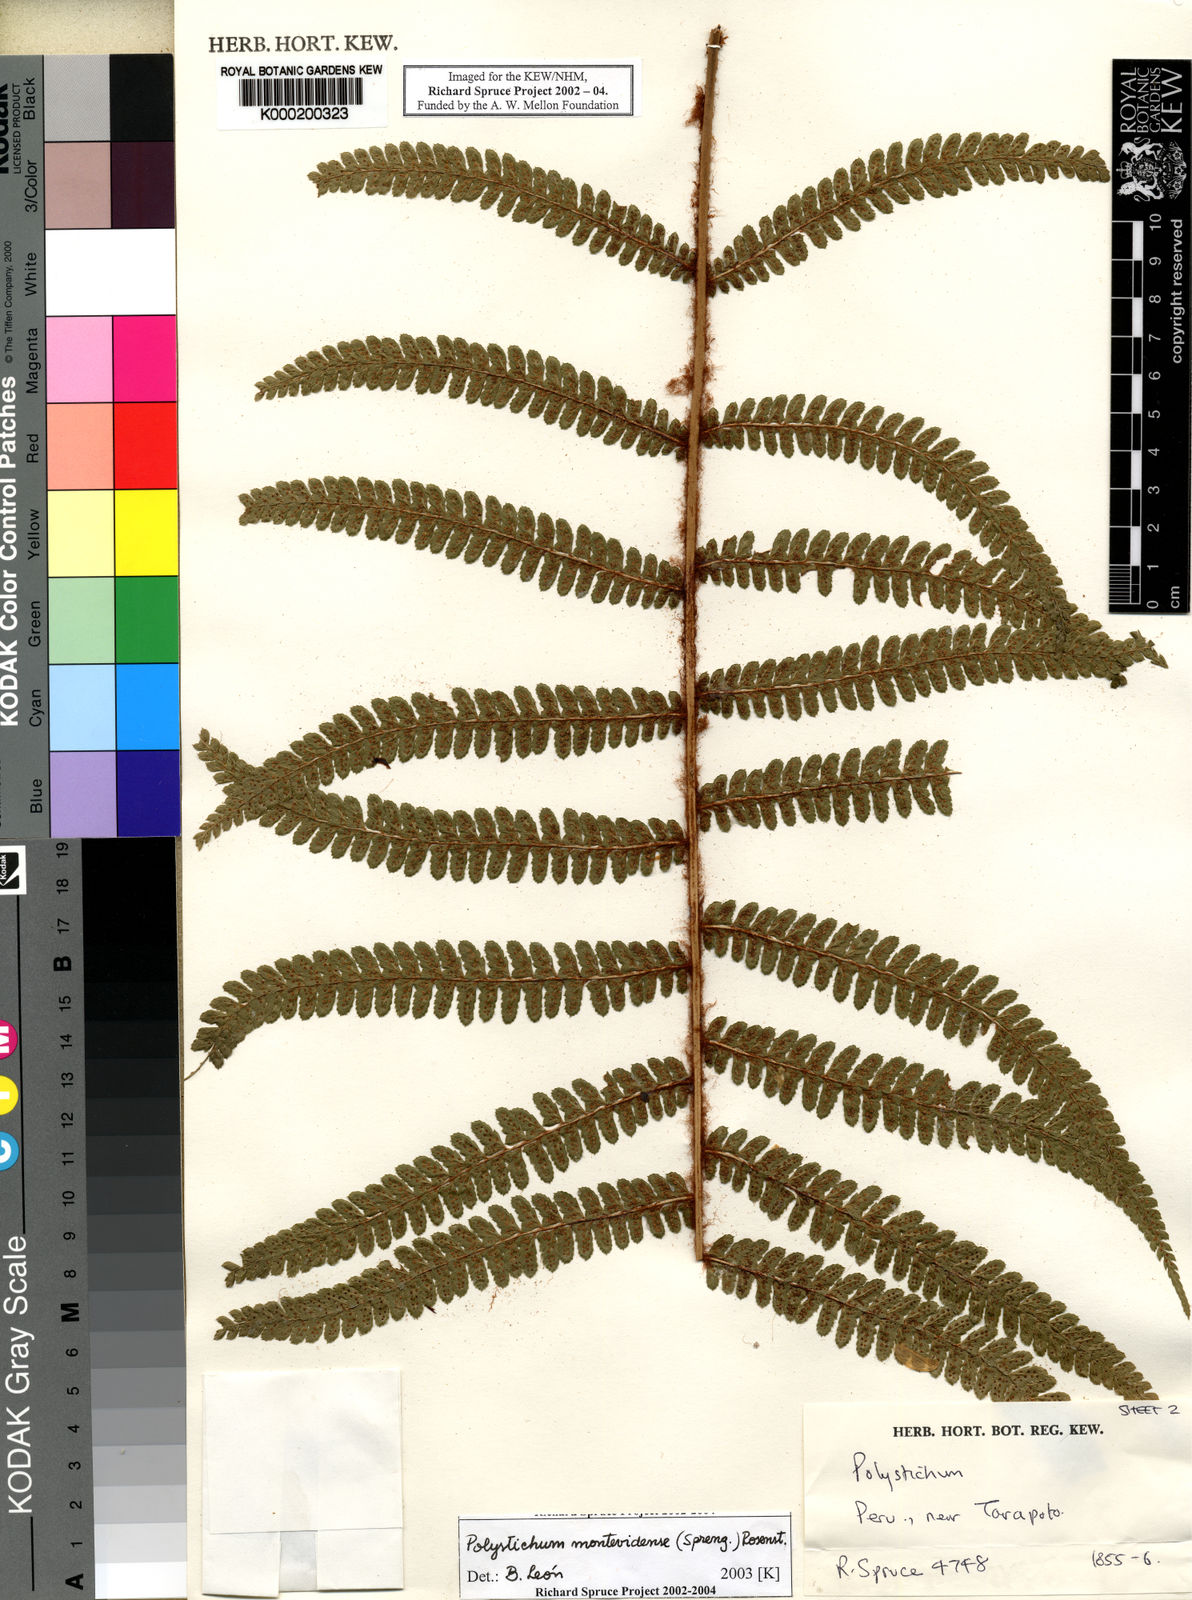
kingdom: Plantae
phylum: Tracheophyta
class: Polypodiopsida
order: Polypodiales
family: Dryopteridaceae
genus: Polystichum
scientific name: Polystichum montevidense
